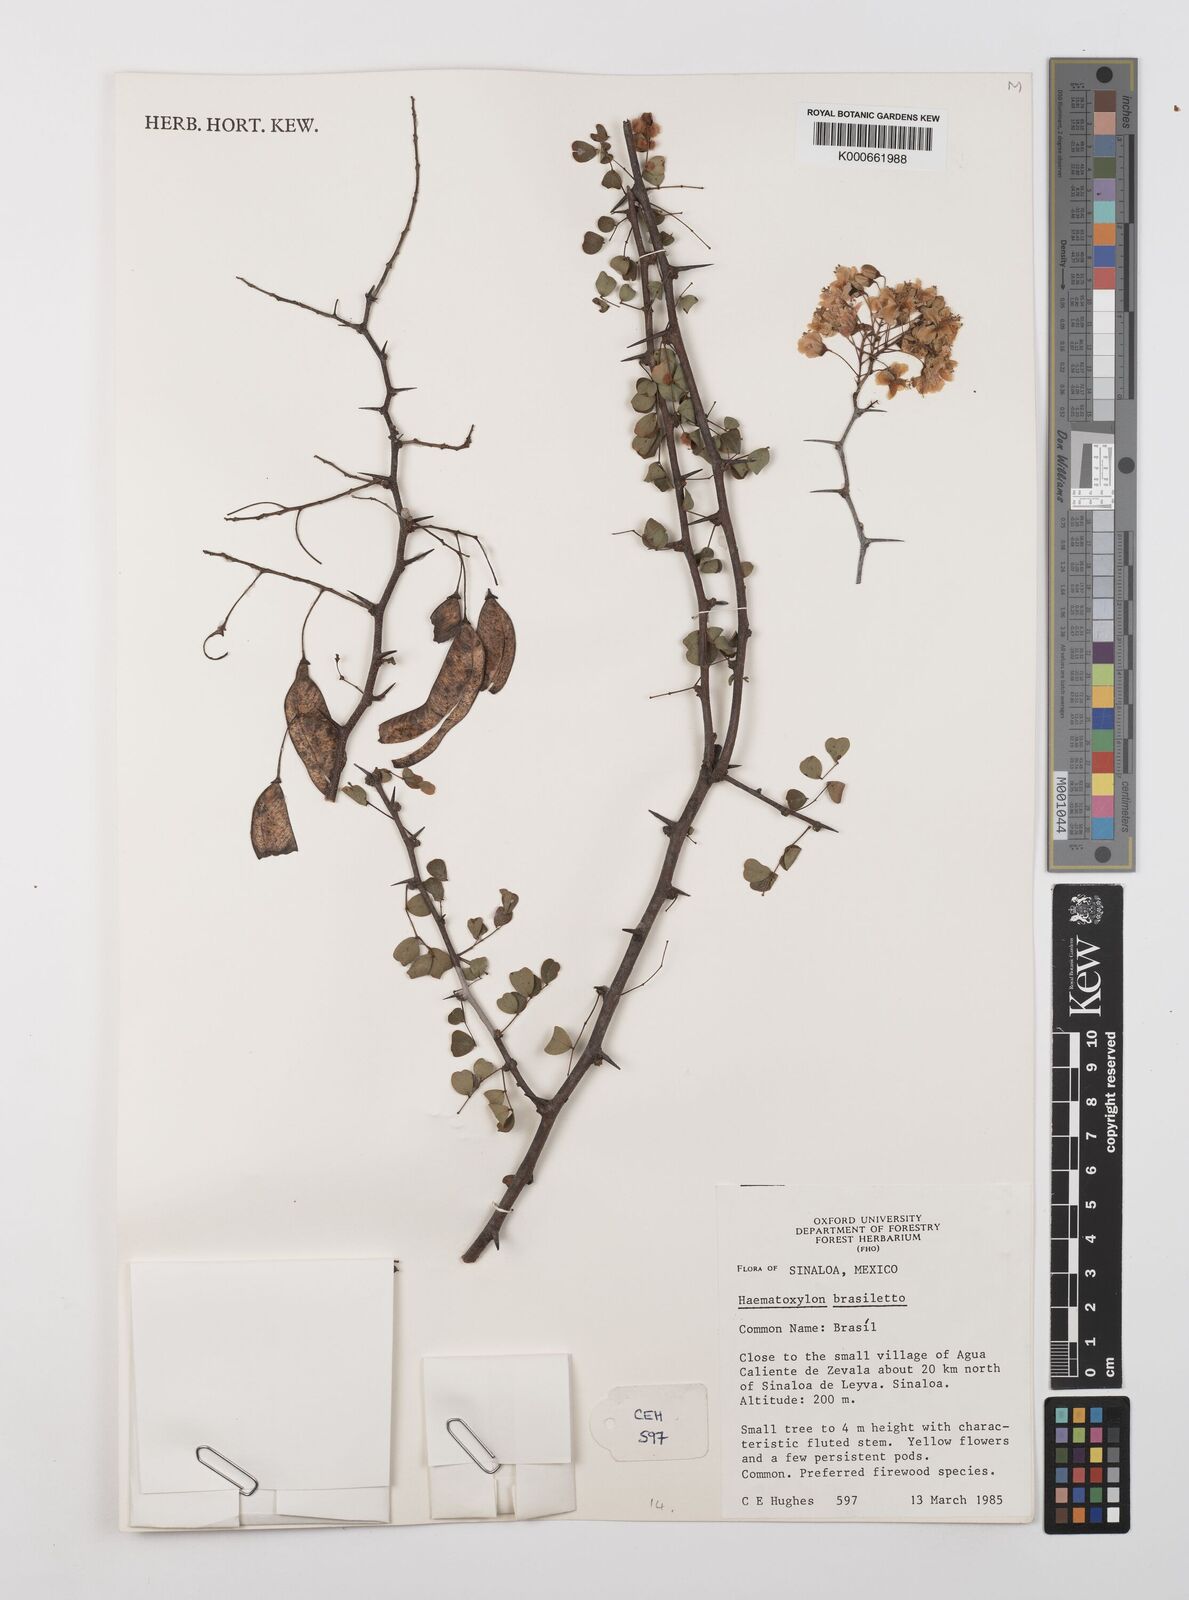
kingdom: Plantae
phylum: Tracheophyta
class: Magnoliopsida
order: Fabales
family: Fabaceae
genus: Haematoxylum
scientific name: Haematoxylum brasiletto
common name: Peachwood
